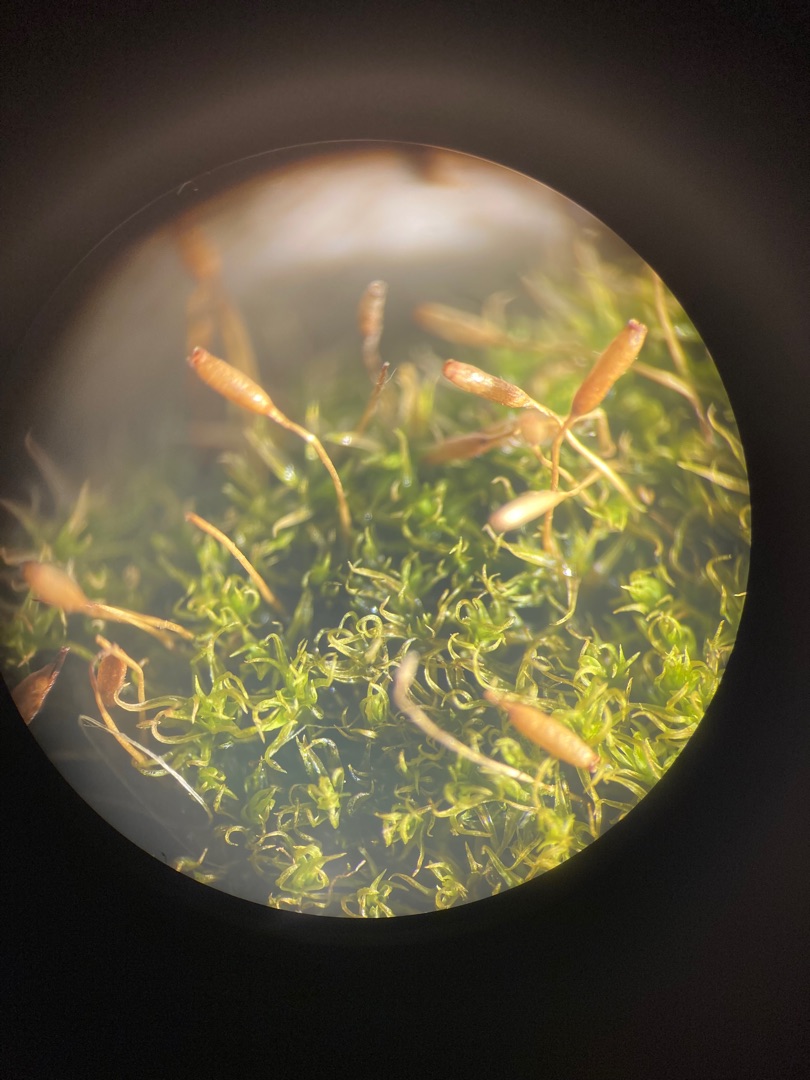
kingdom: Plantae
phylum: Bryophyta
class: Bryopsida
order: Dicranales
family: Rhabdoweisiaceae
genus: Dicranoweisia
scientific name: Dicranoweisia cirrata
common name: Almindelig krøltuemos
